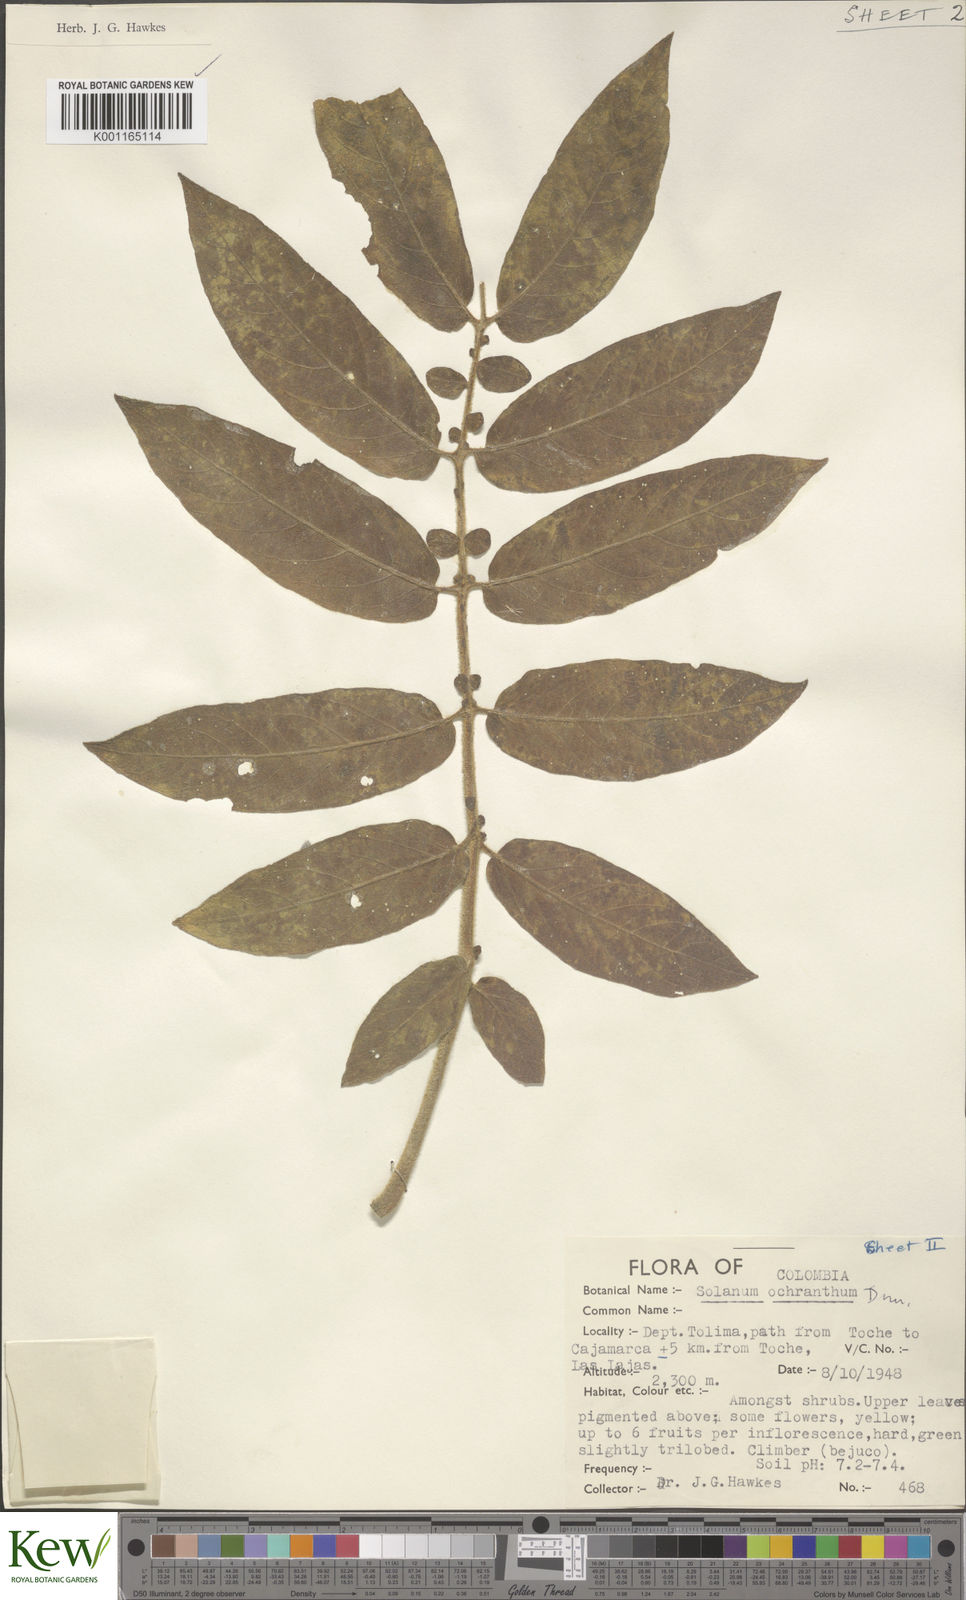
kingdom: Plantae
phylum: Tracheophyta
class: Magnoliopsida
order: Solanales
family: Solanaceae
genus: Solanum
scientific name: Solanum ochranthum
